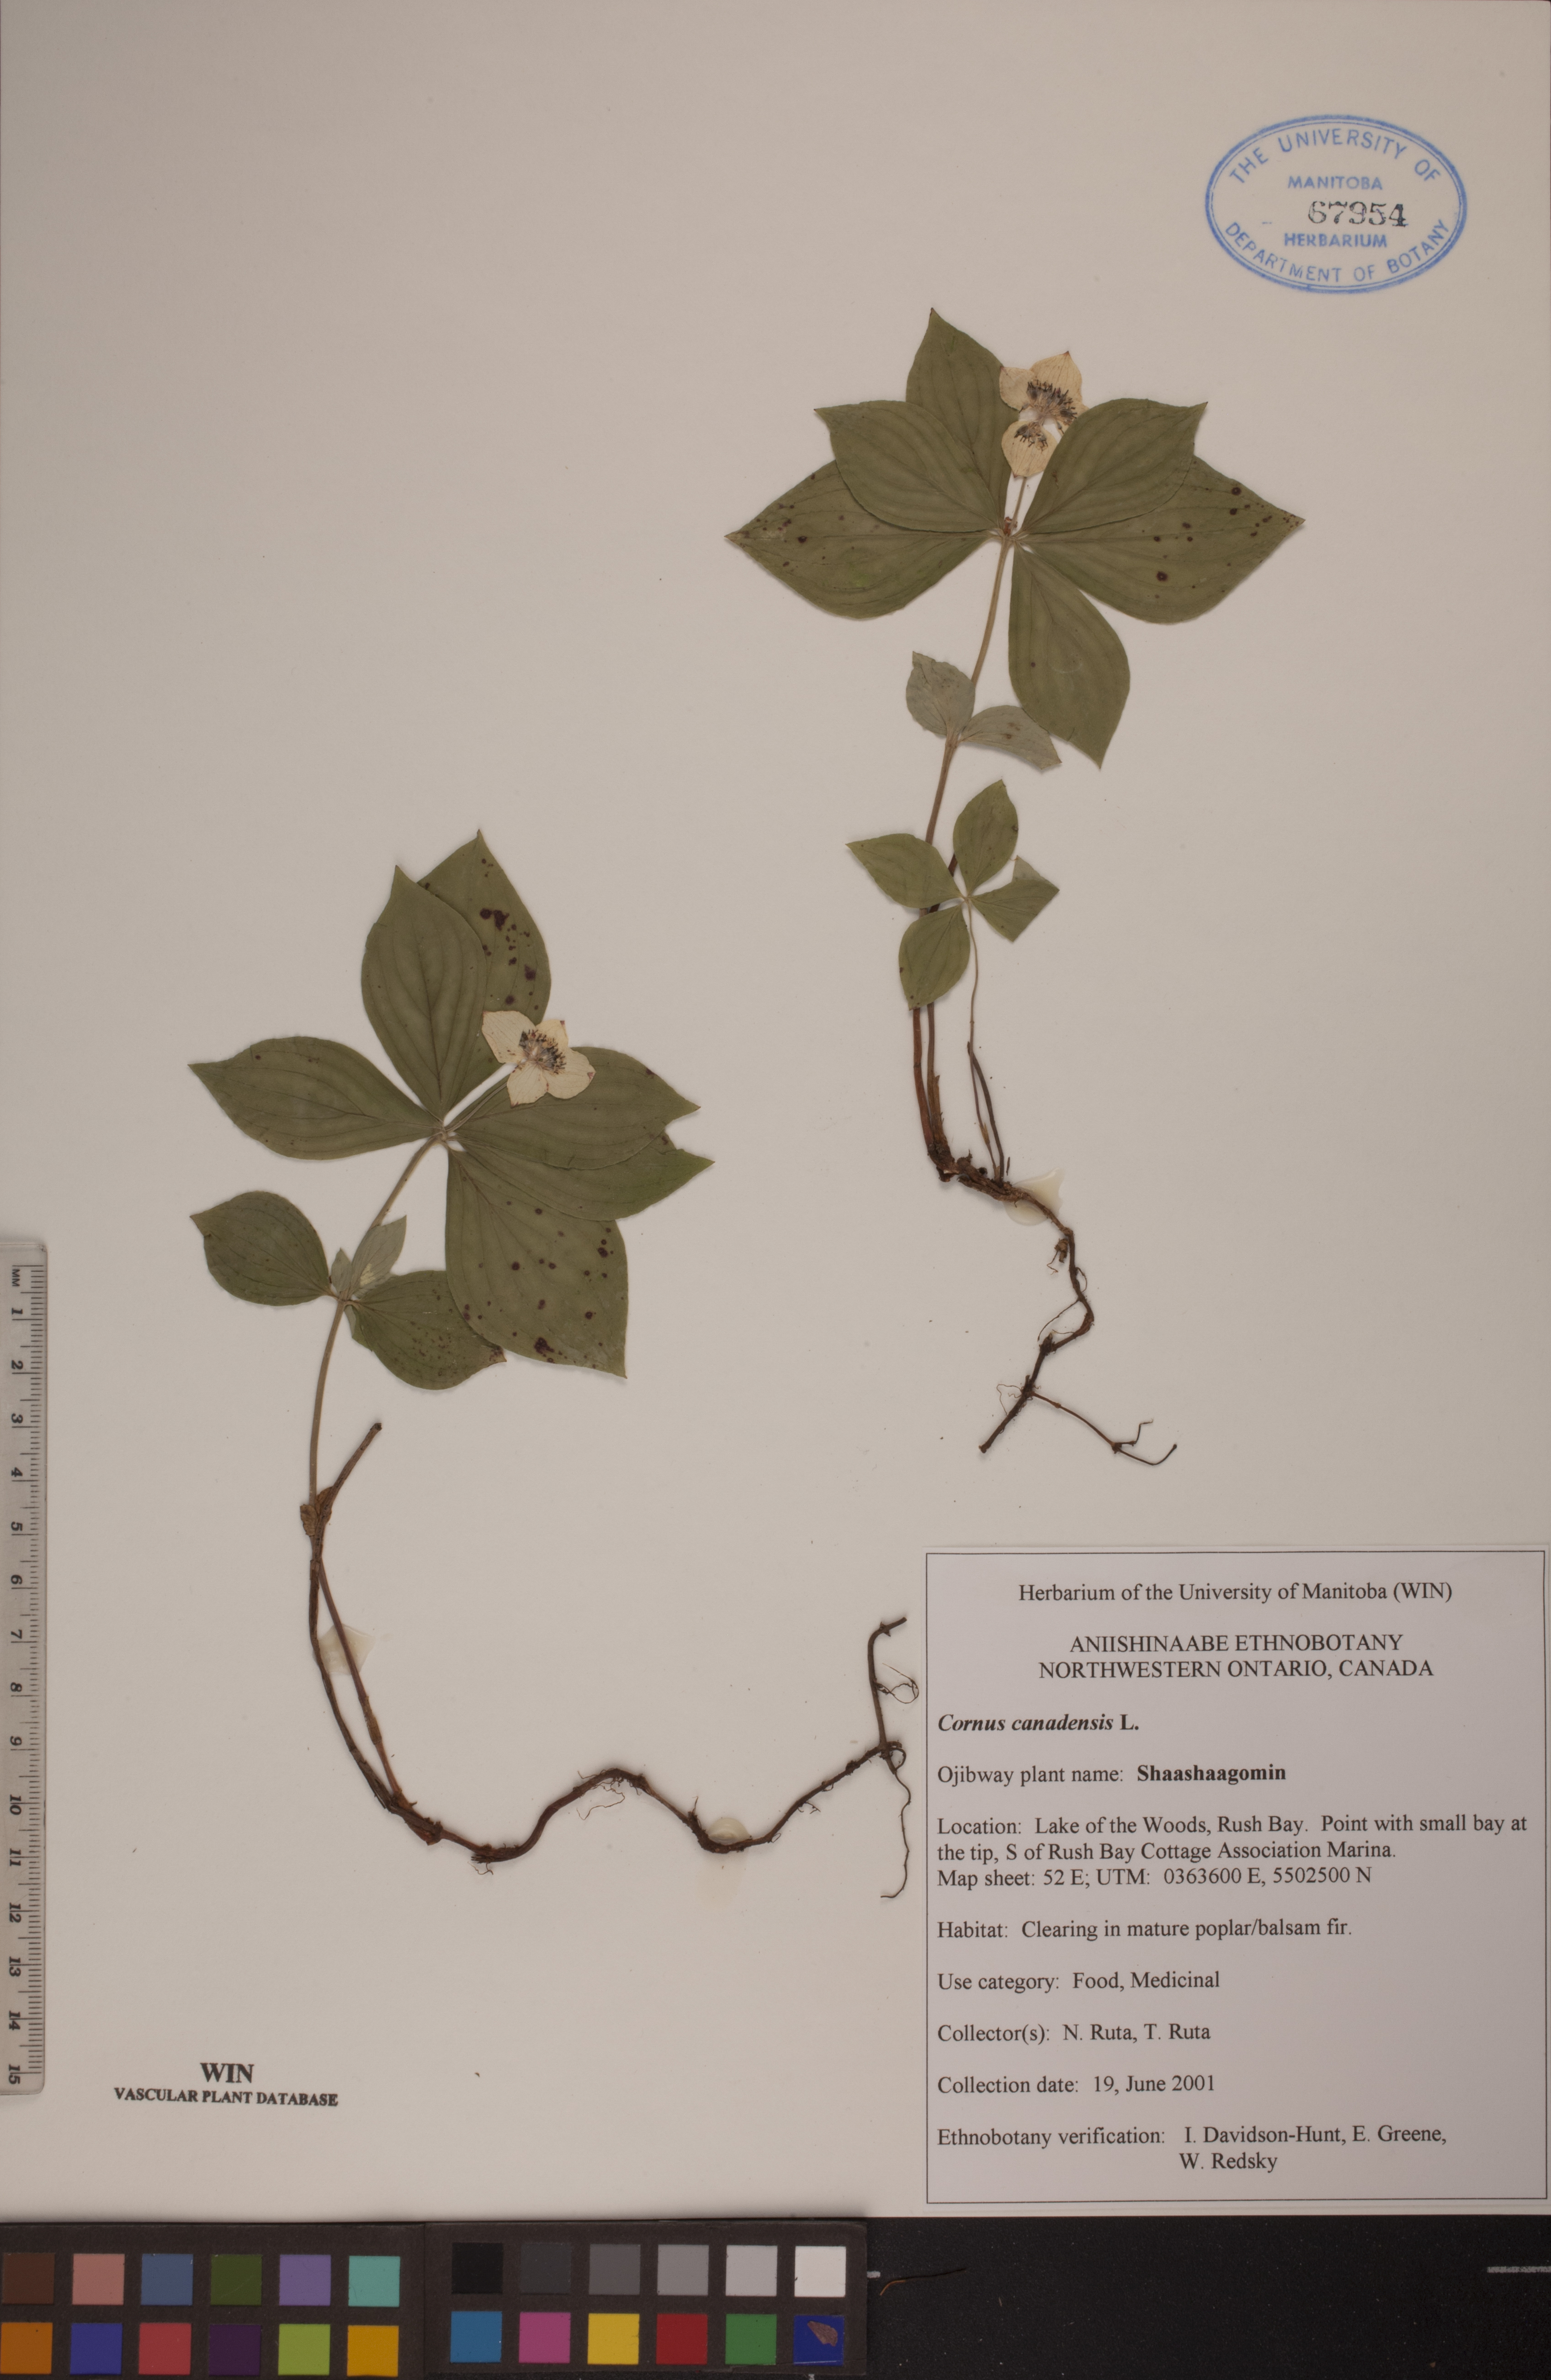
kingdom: Plantae
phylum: Tracheophyta
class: Magnoliopsida
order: Cornales
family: Cornaceae
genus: Cornus
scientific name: Cornus canadensis
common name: Creeping dogwood
